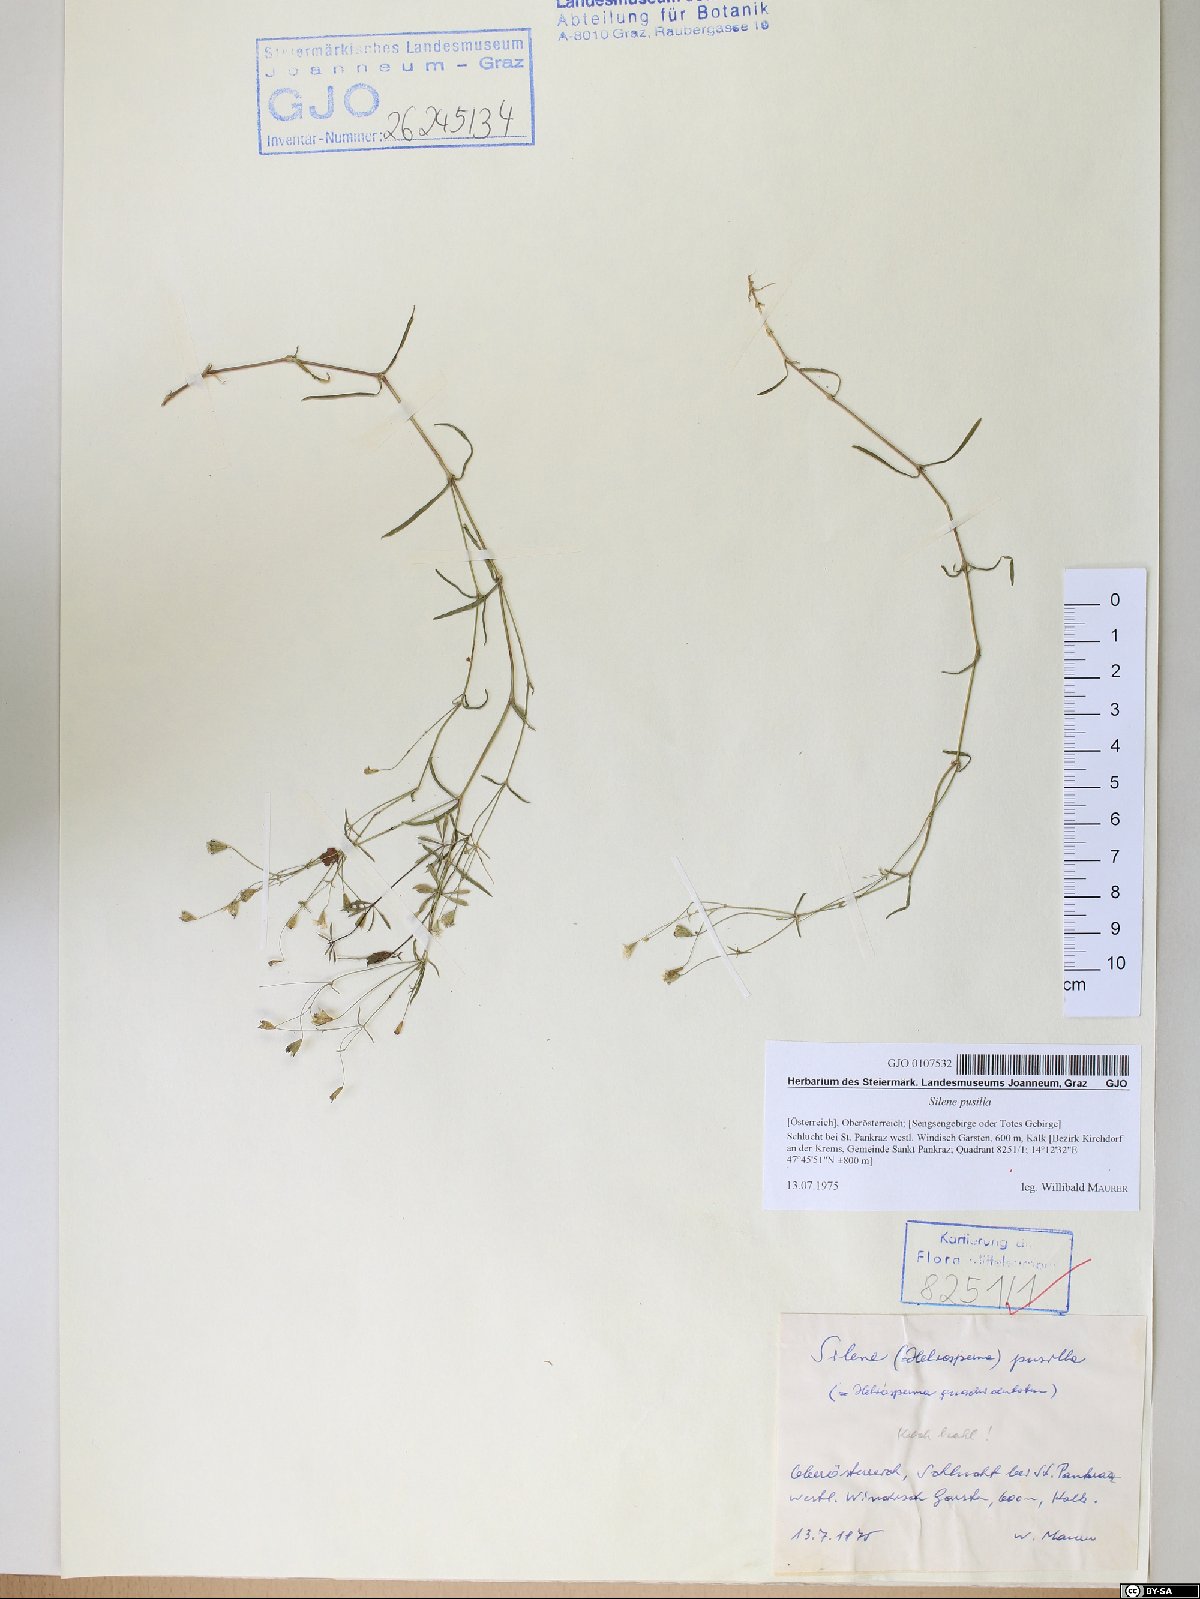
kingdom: Plantae
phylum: Tracheophyta
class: Magnoliopsida
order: Caryophyllales
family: Caryophyllaceae
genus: Heliosperma
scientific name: Heliosperma pusillum
